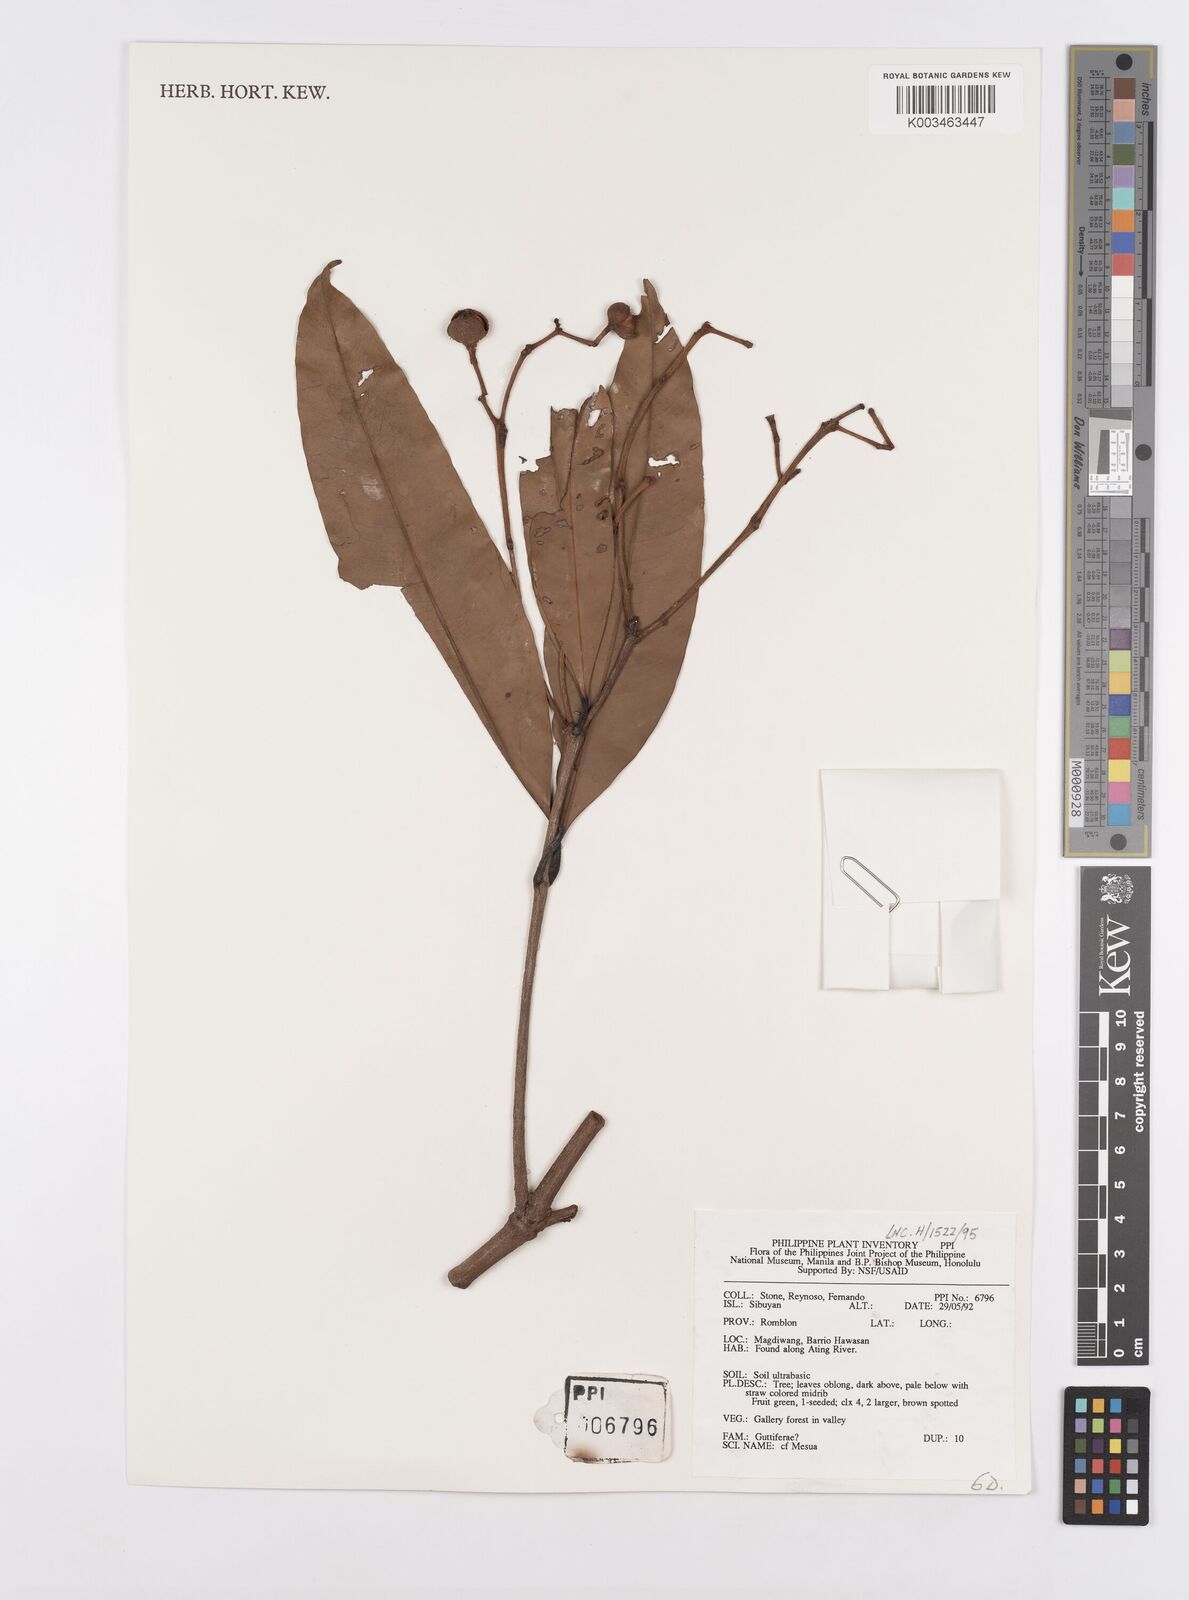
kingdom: Plantae
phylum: Tracheophyta
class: Magnoliopsida
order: Malpighiales
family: Calophyllaceae
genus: Kayea
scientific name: Kayea
